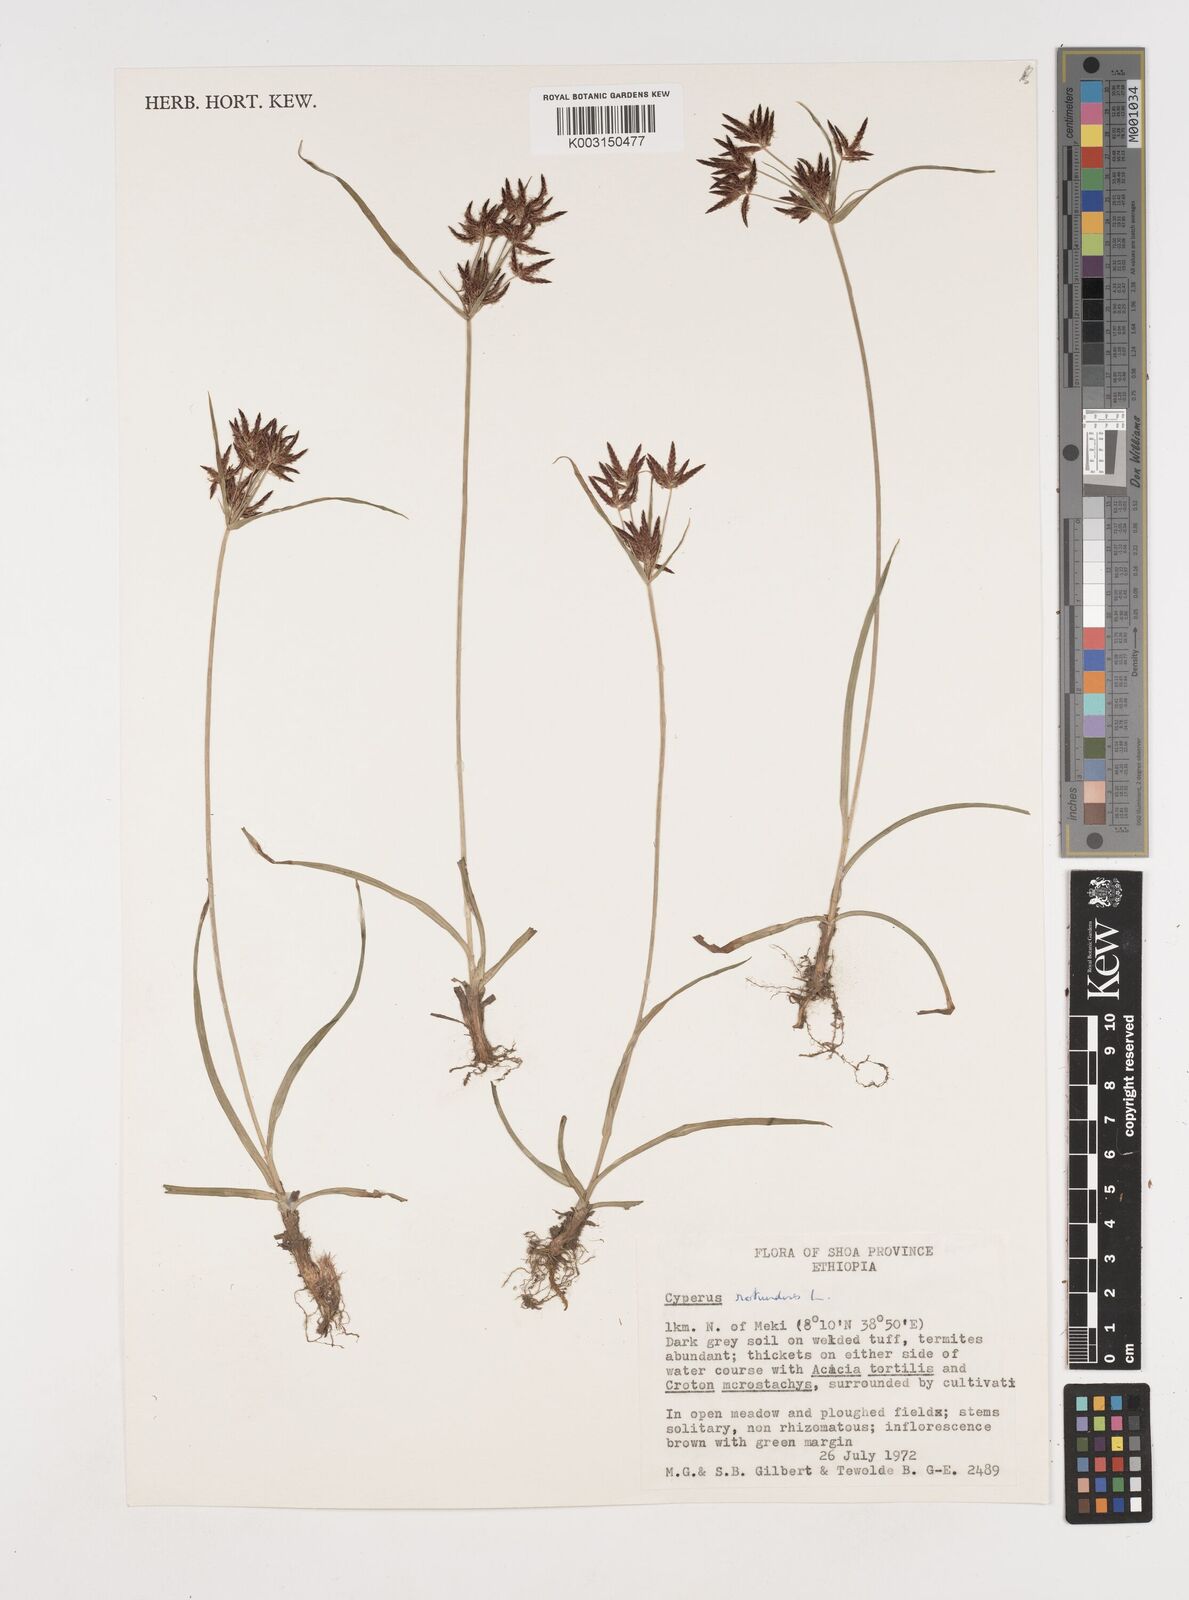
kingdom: Plantae
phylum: Tracheophyta
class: Liliopsida
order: Poales
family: Cyperaceae
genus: Cyperus
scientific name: Cyperus rotundus
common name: Nutgrass
